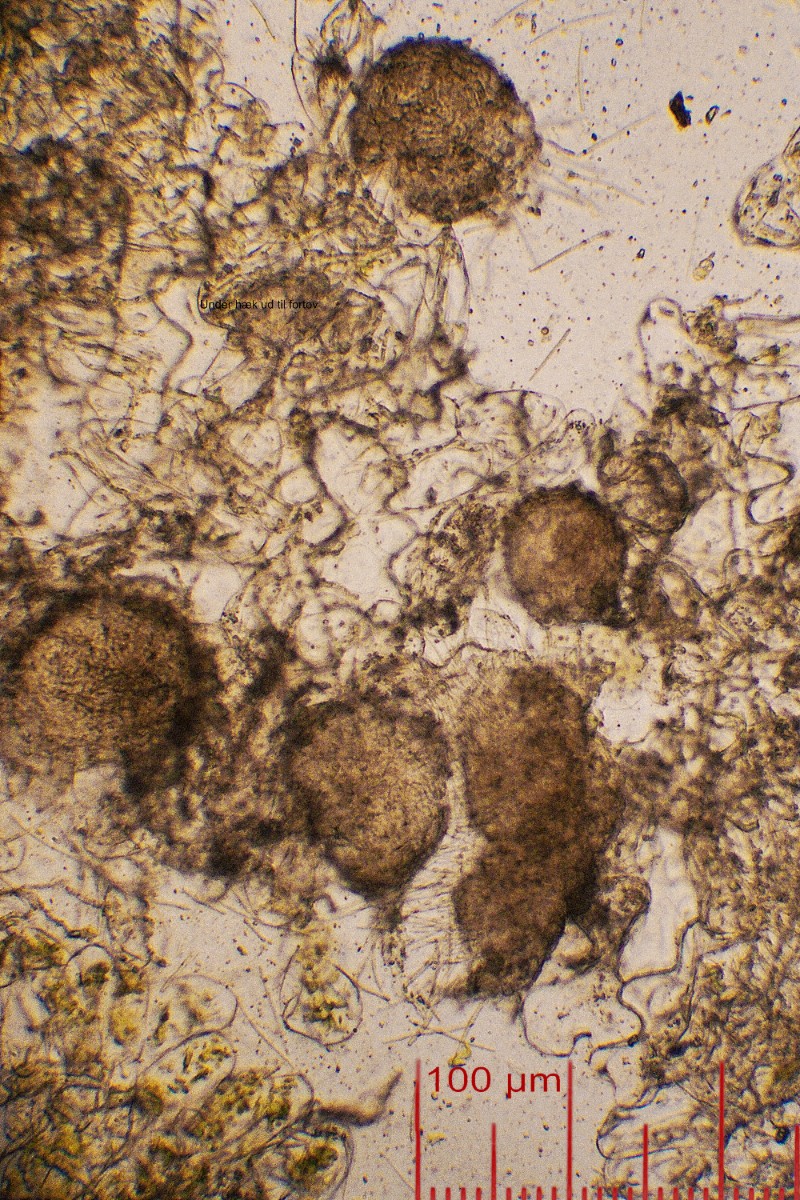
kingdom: Fungi
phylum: Ascomycota
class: Dothideomycetes
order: Mycosphaerellales
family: Mycosphaerellaceae
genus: Septoria
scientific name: Septoria stellariae
